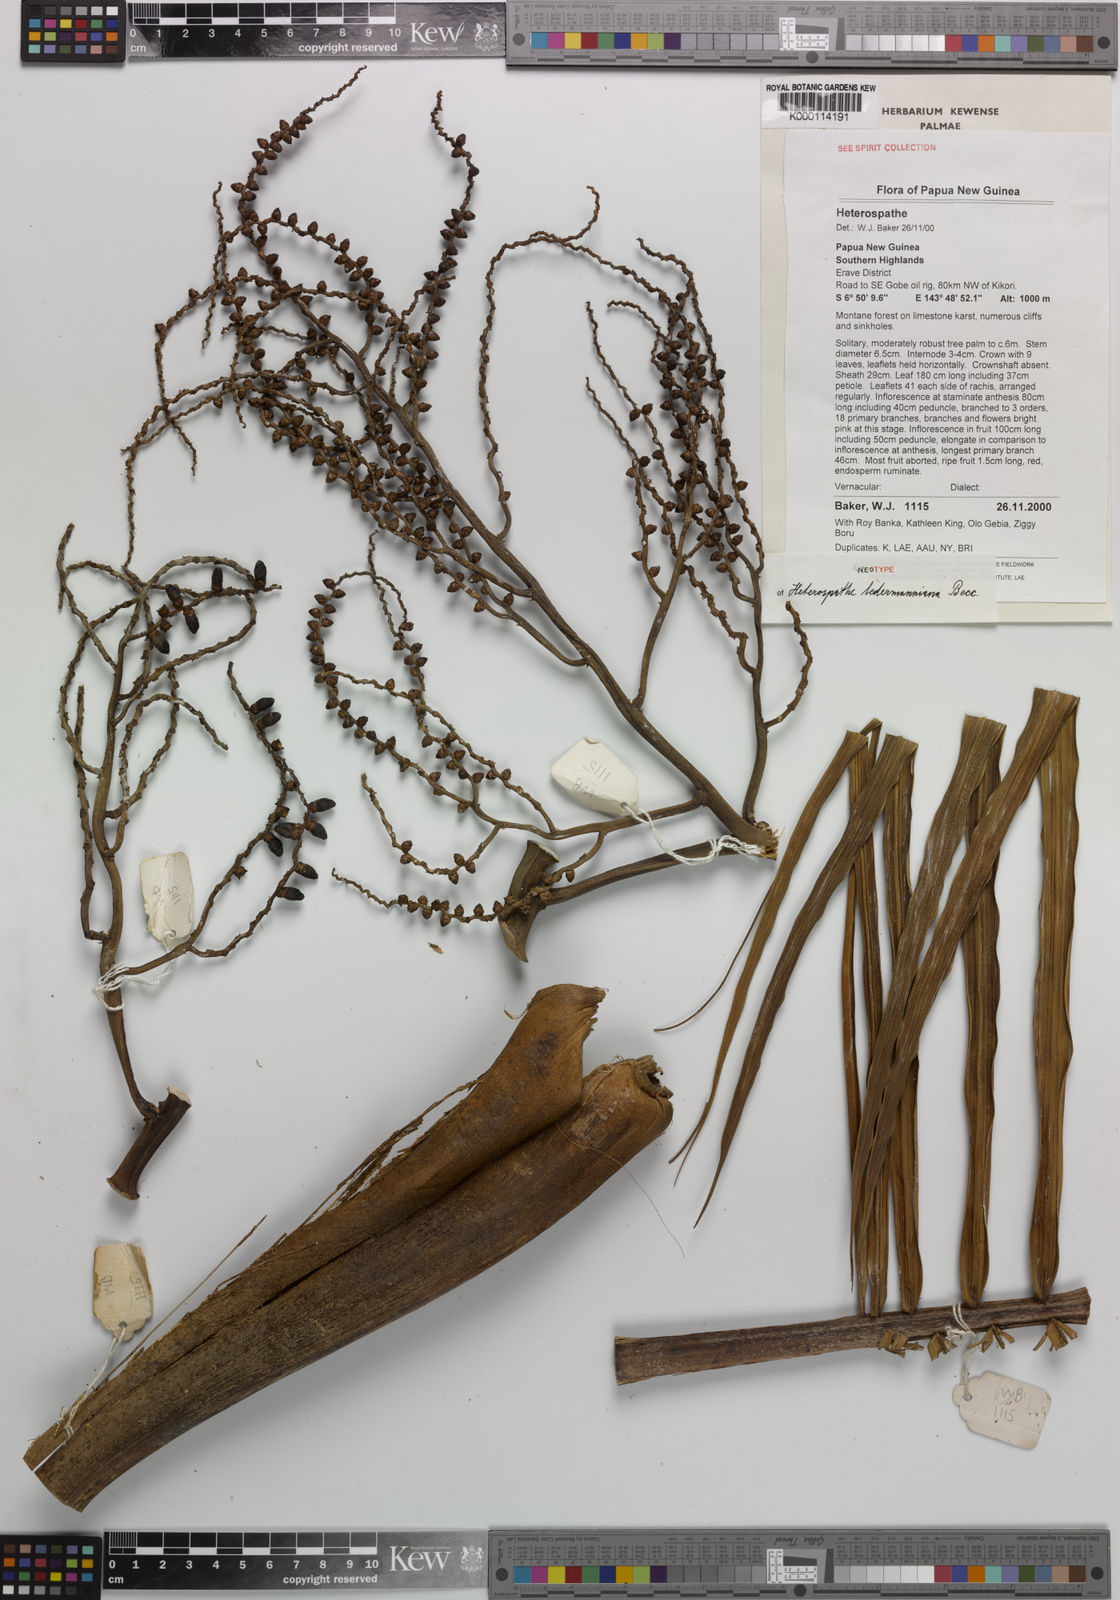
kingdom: Plantae
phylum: Tracheophyta
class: Liliopsida
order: Arecales
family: Arecaceae
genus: Heterospathe
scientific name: Heterospathe ledermanniana
